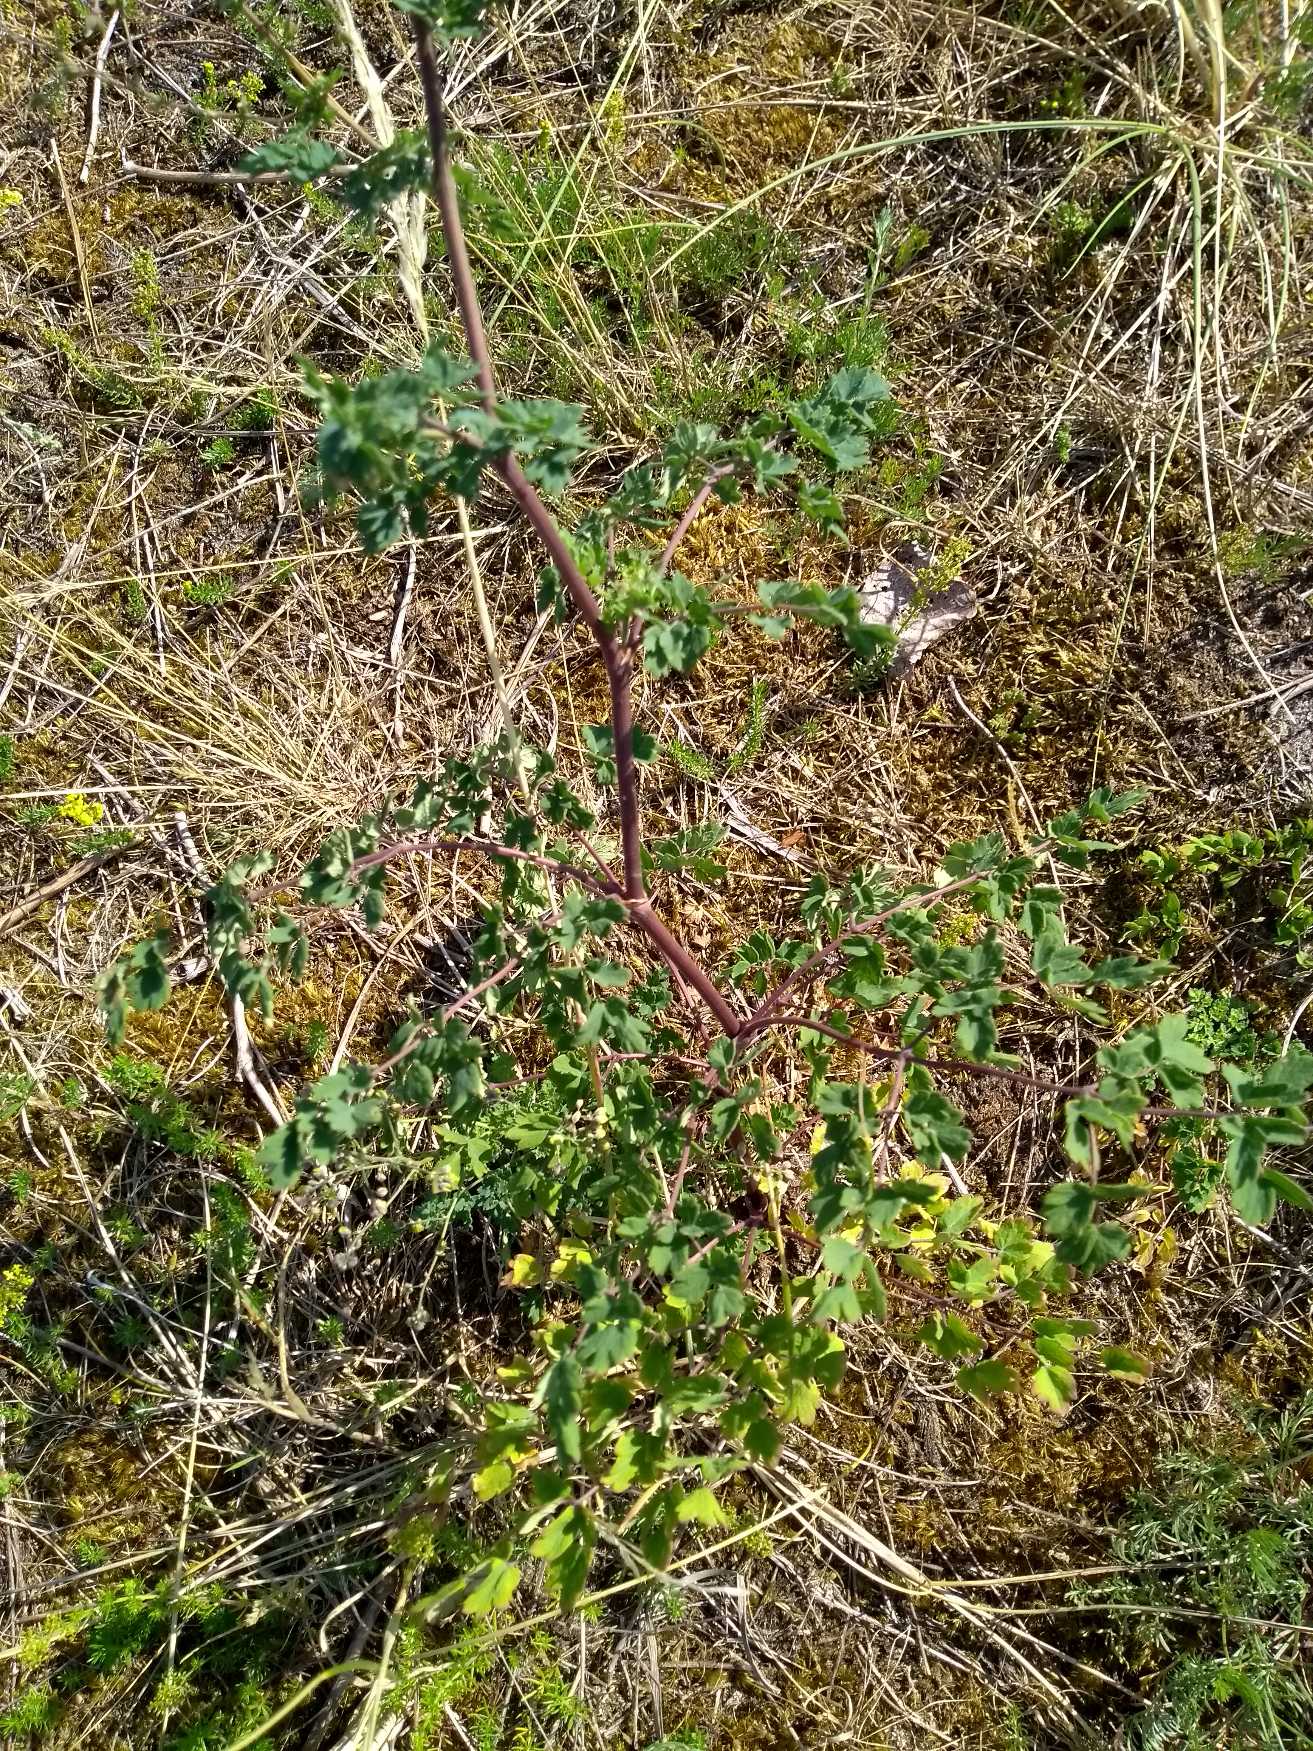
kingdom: Plantae
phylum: Tracheophyta
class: Magnoliopsida
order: Ranunculales
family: Ranunculaceae
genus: Thalictrum
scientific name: Thalictrum minus
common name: Liden frøstjerne
